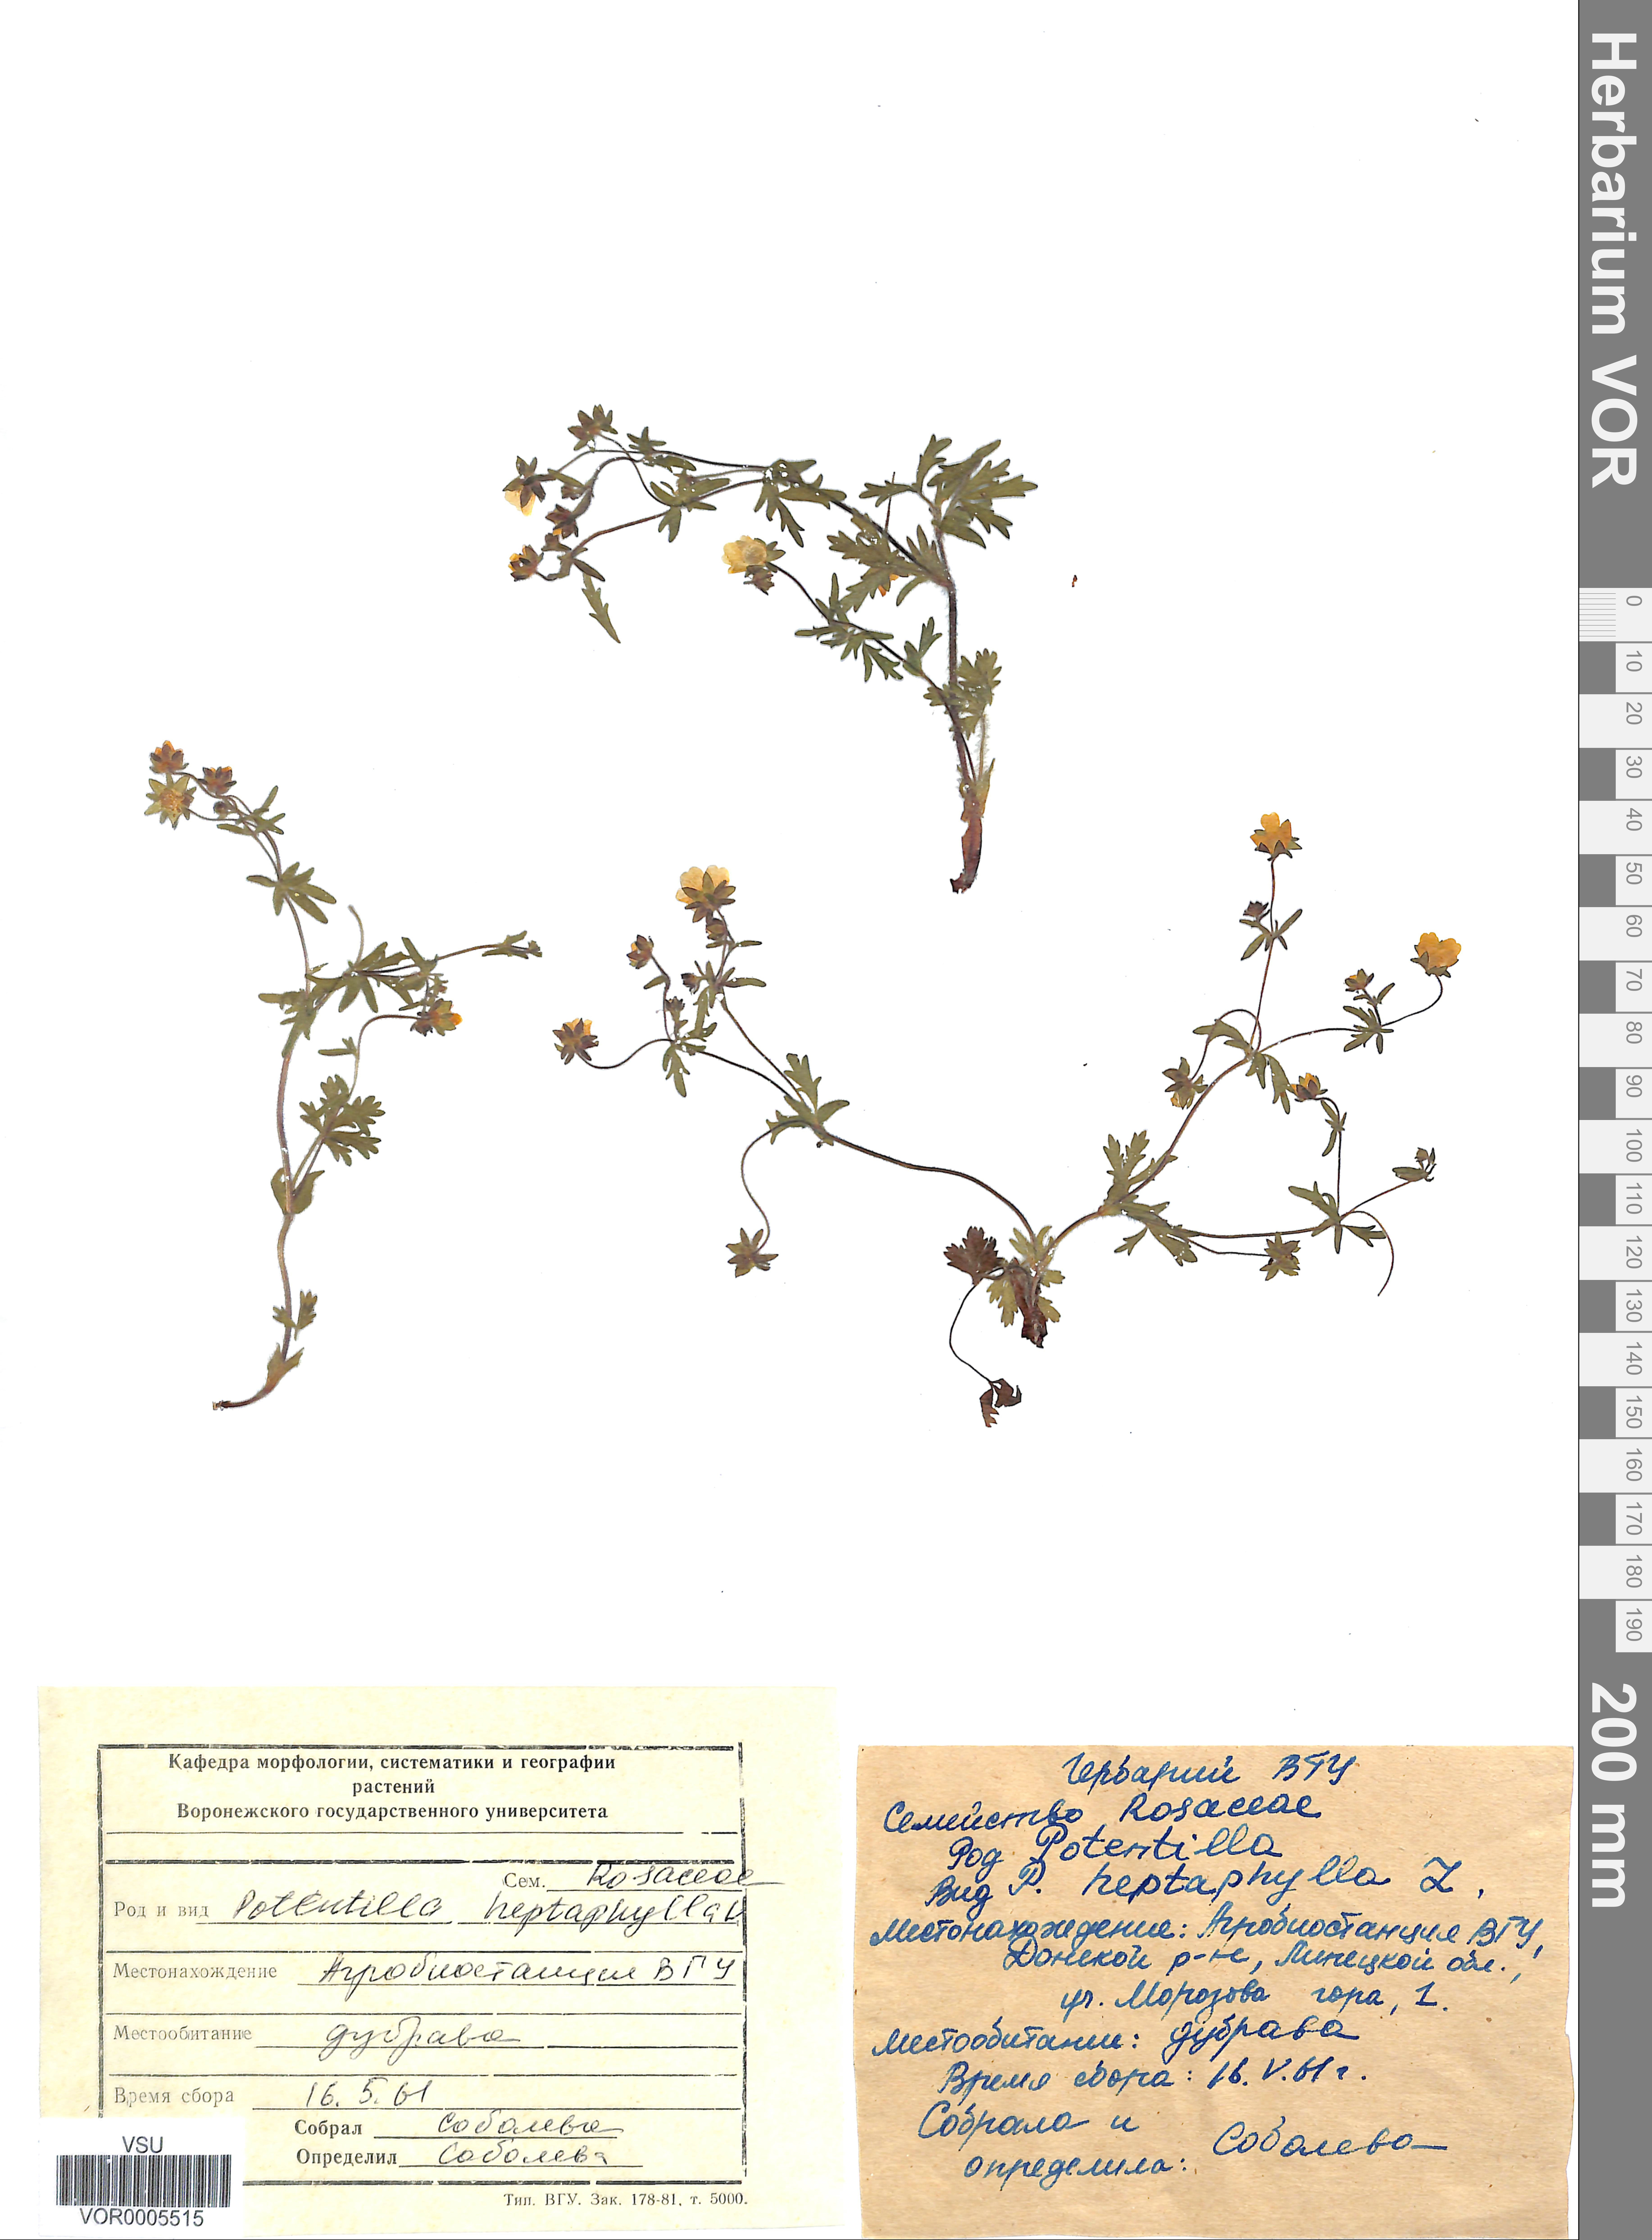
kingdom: Plantae
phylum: Tracheophyta
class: Magnoliopsida
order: Rosales
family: Rosaceae
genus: Potentilla
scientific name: Potentilla heptaphylla
